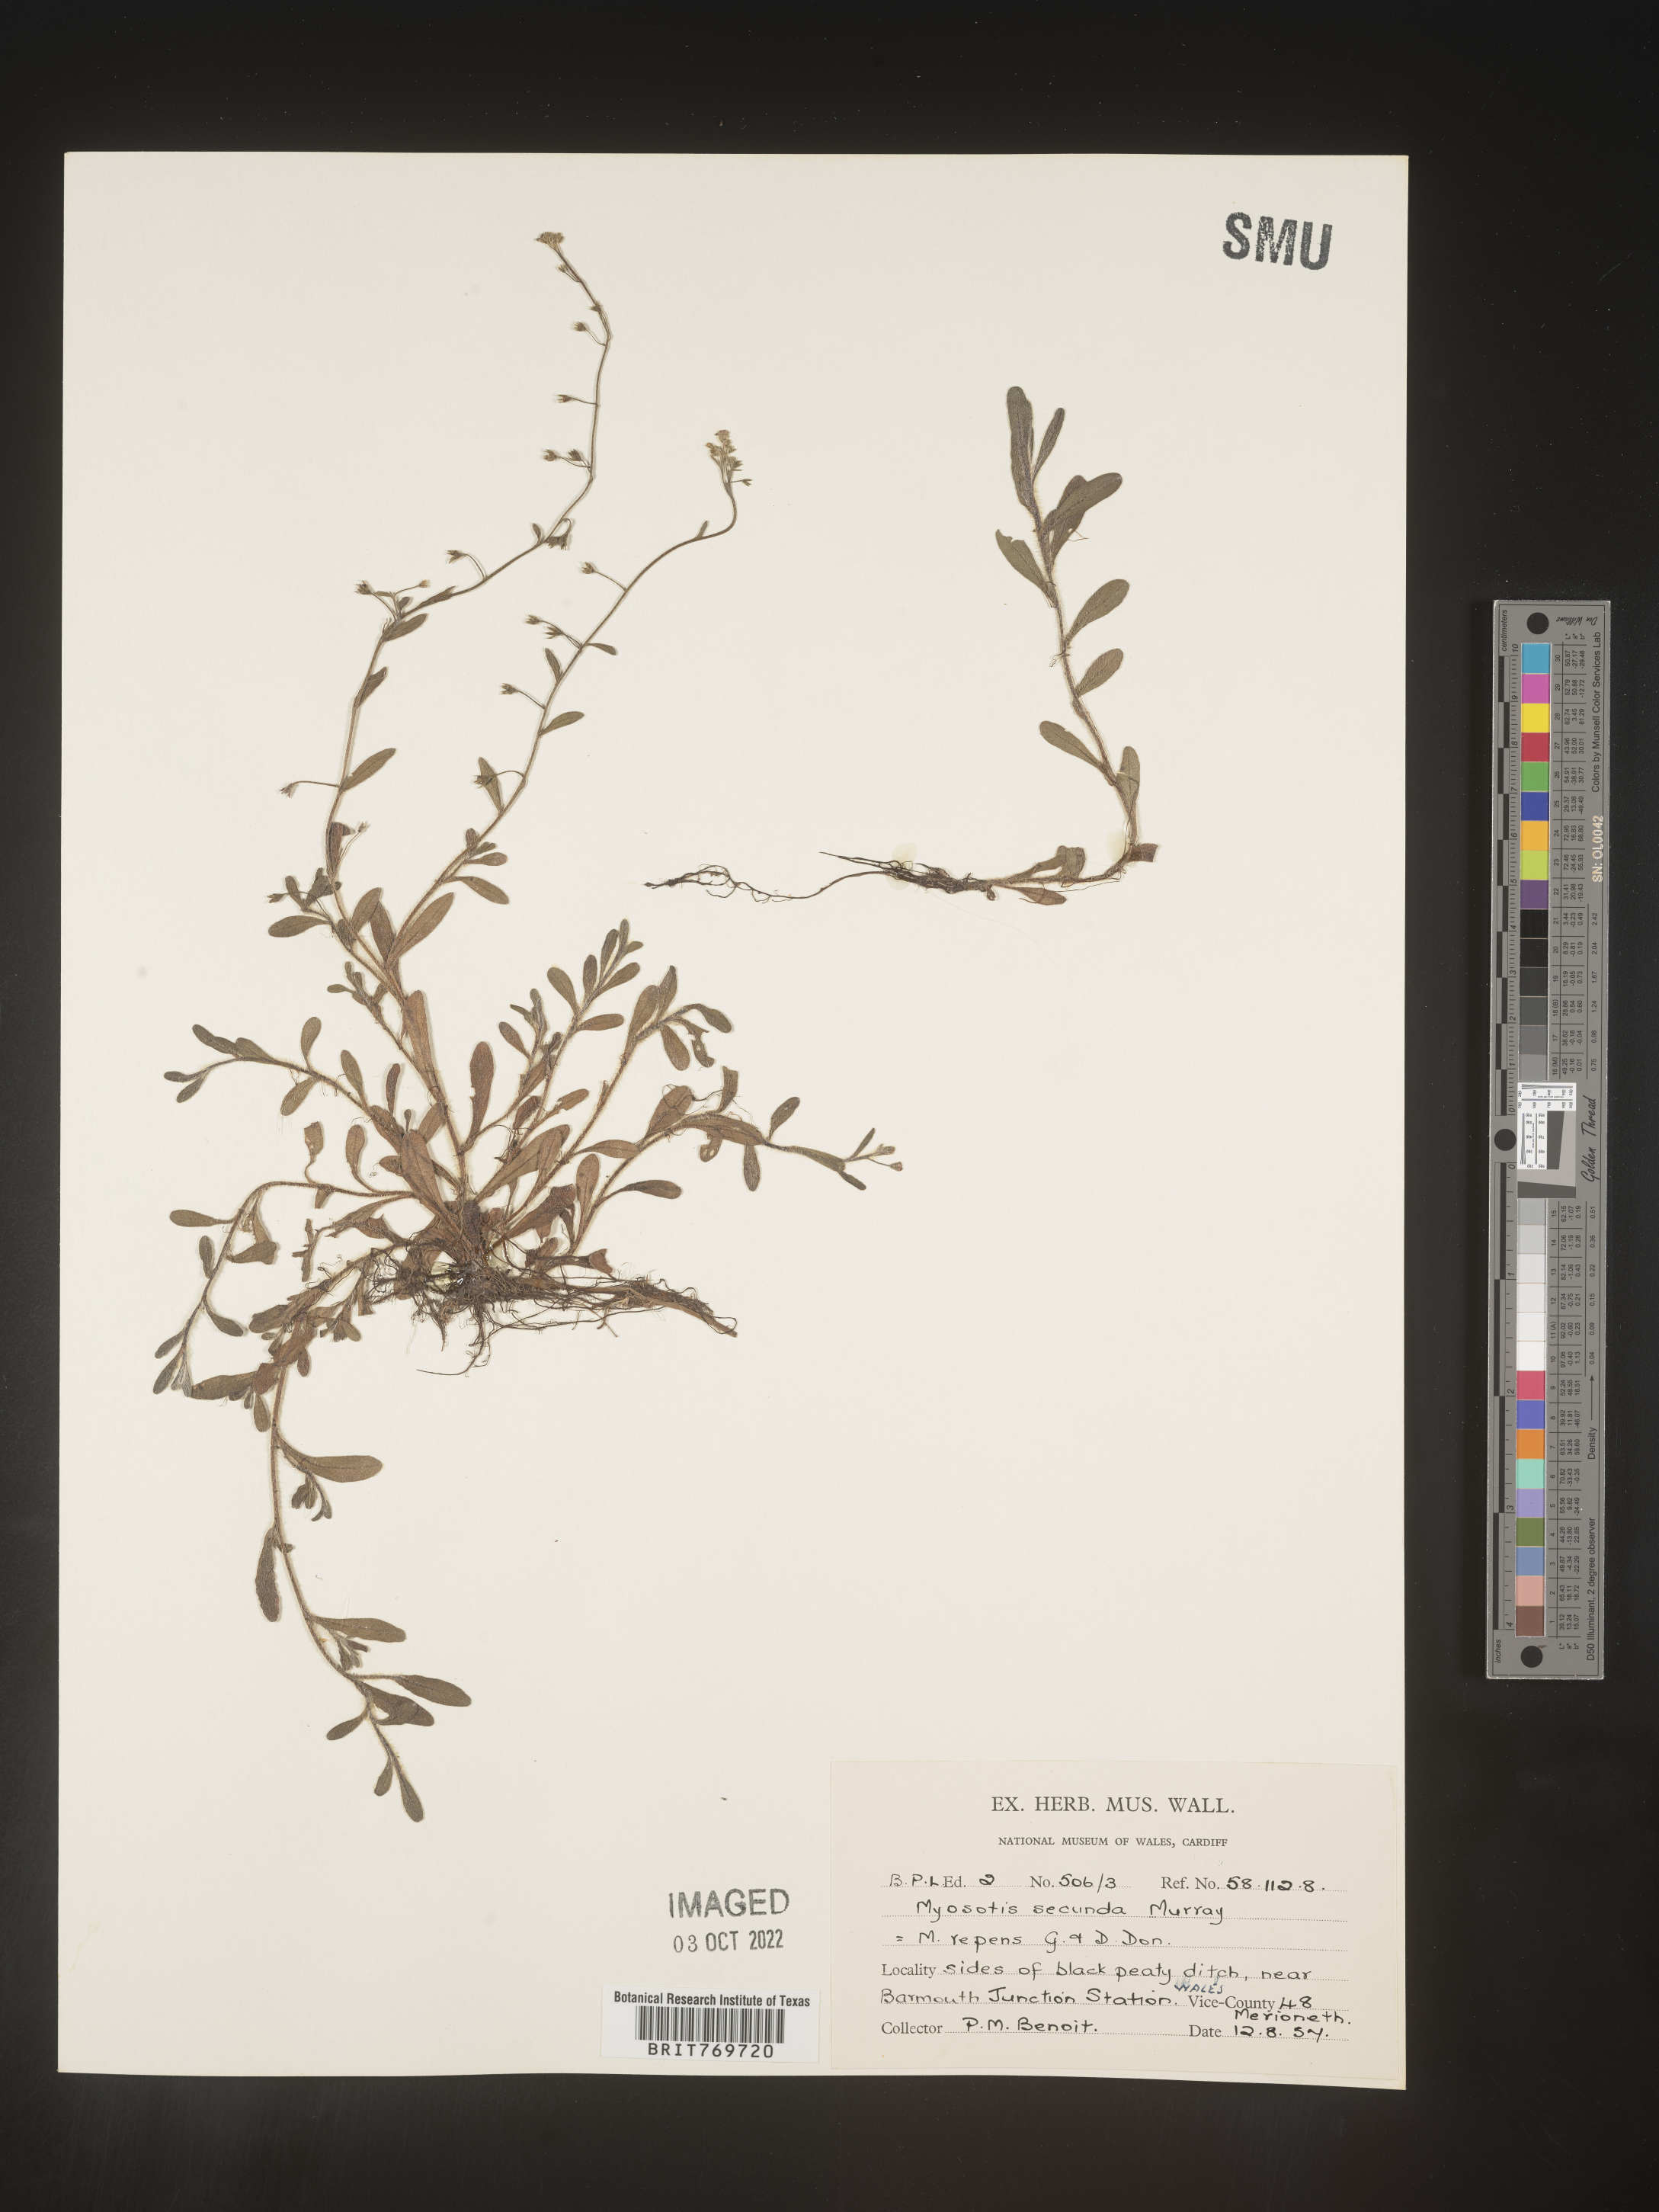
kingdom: Plantae
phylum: Tracheophyta
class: Magnoliopsida
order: Boraginales
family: Boraginaceae
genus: Myosotis
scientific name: Myosotis
